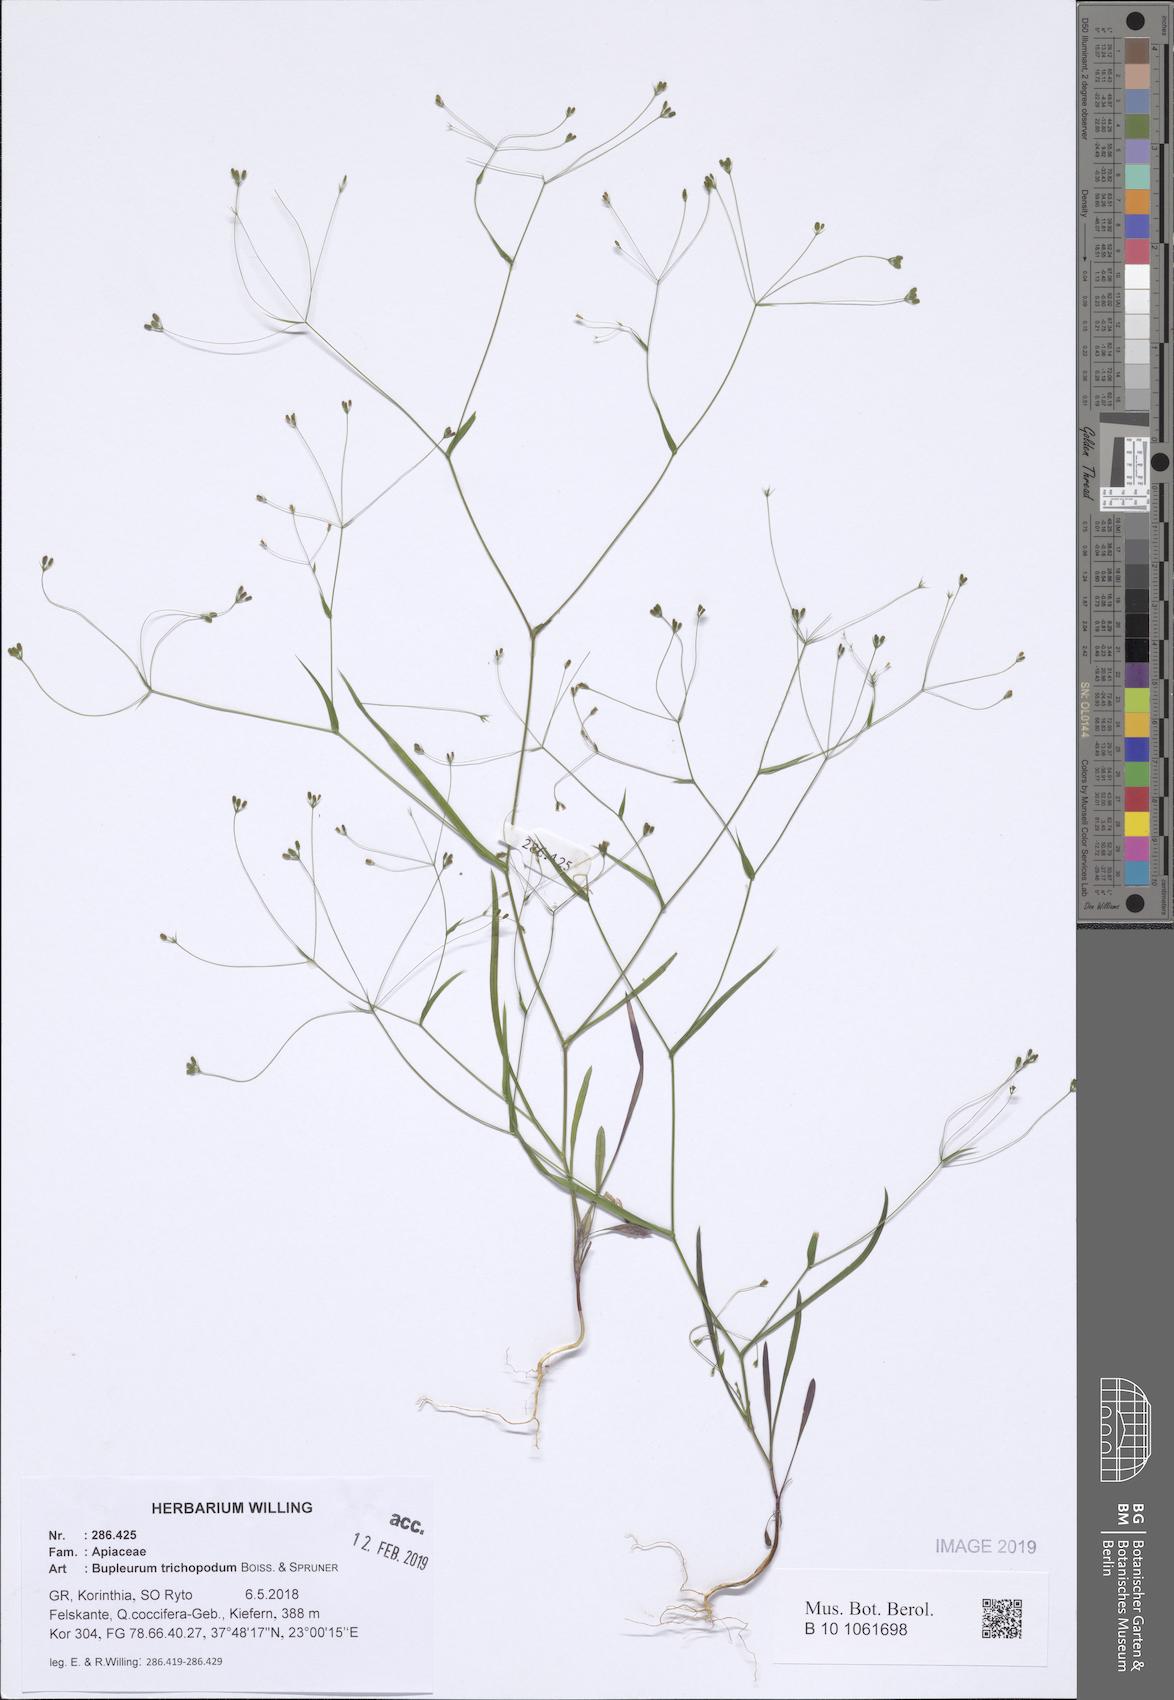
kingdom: Plantae
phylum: Tracheophyta
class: Magnoliopsida
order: Apiales
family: Apiaceae
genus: Bupleurum
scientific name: Bupleurum trichopodum
